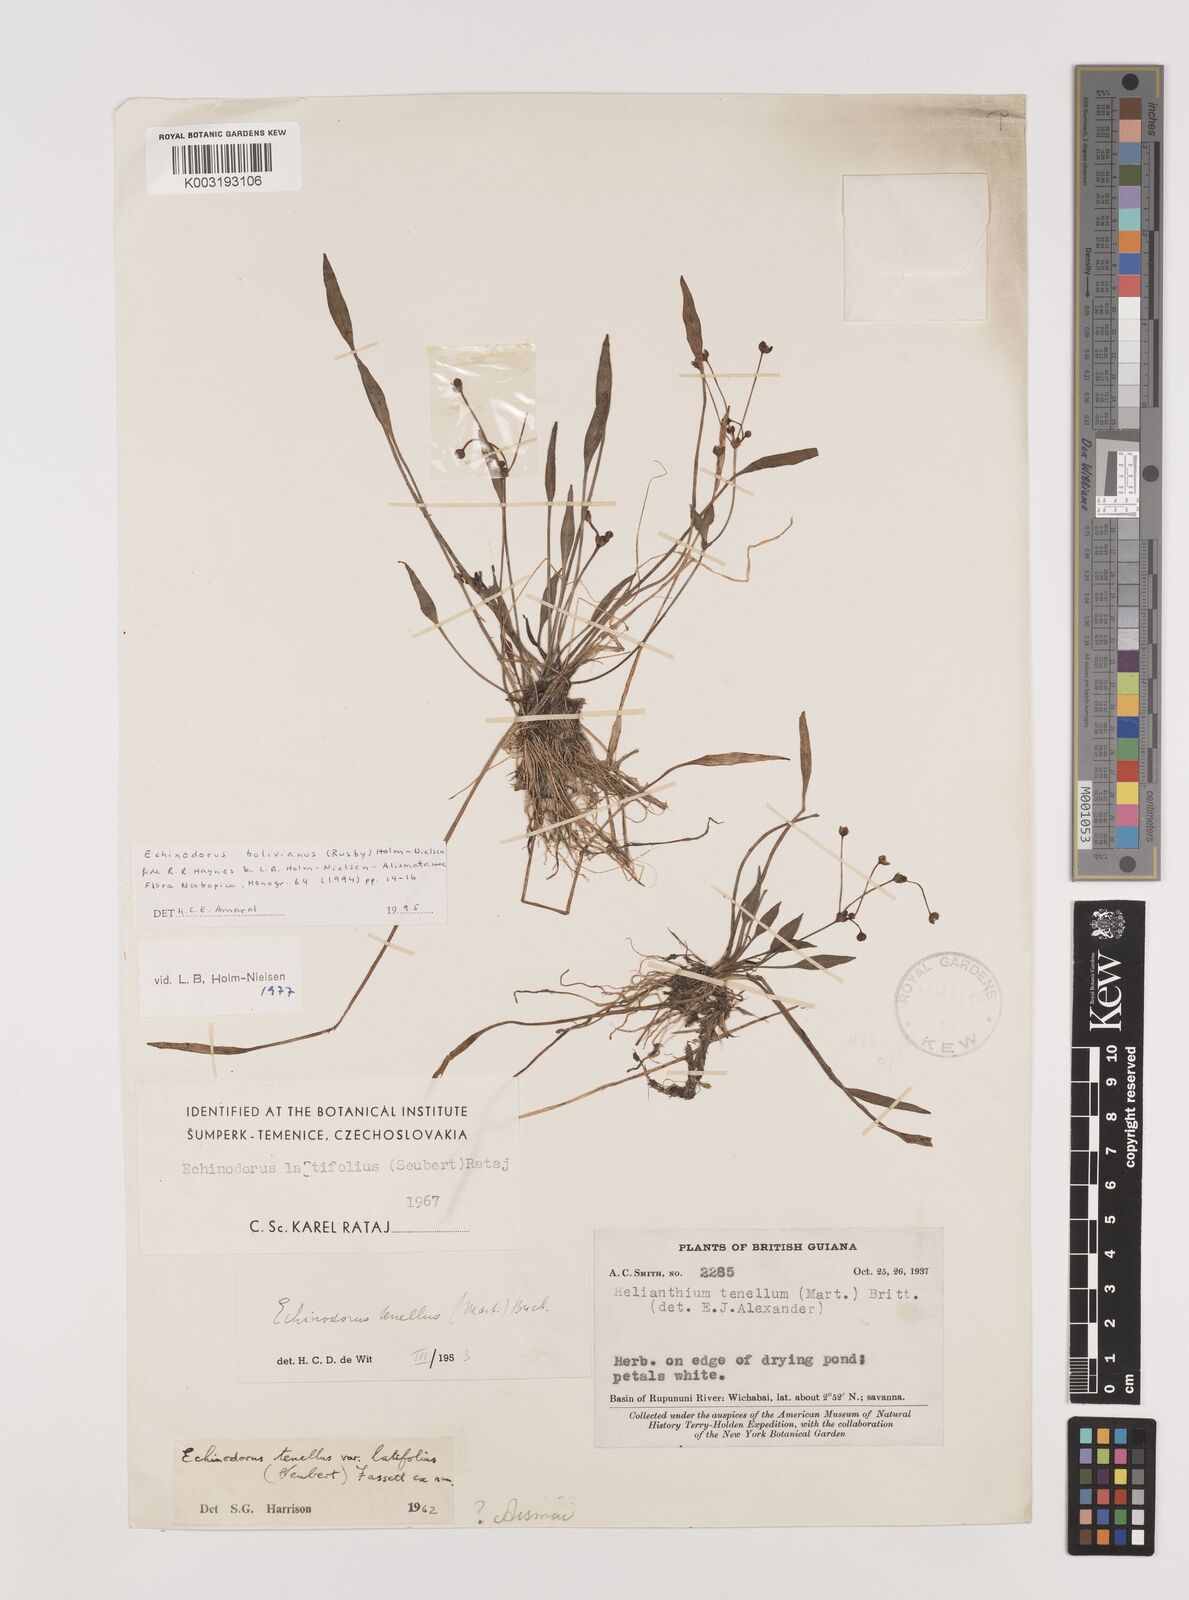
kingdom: Plantae
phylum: Tracheophyta
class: Liliopsida
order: Alismatales
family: Alismataceae
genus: Helanthium
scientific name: Helanthium bolivianum
